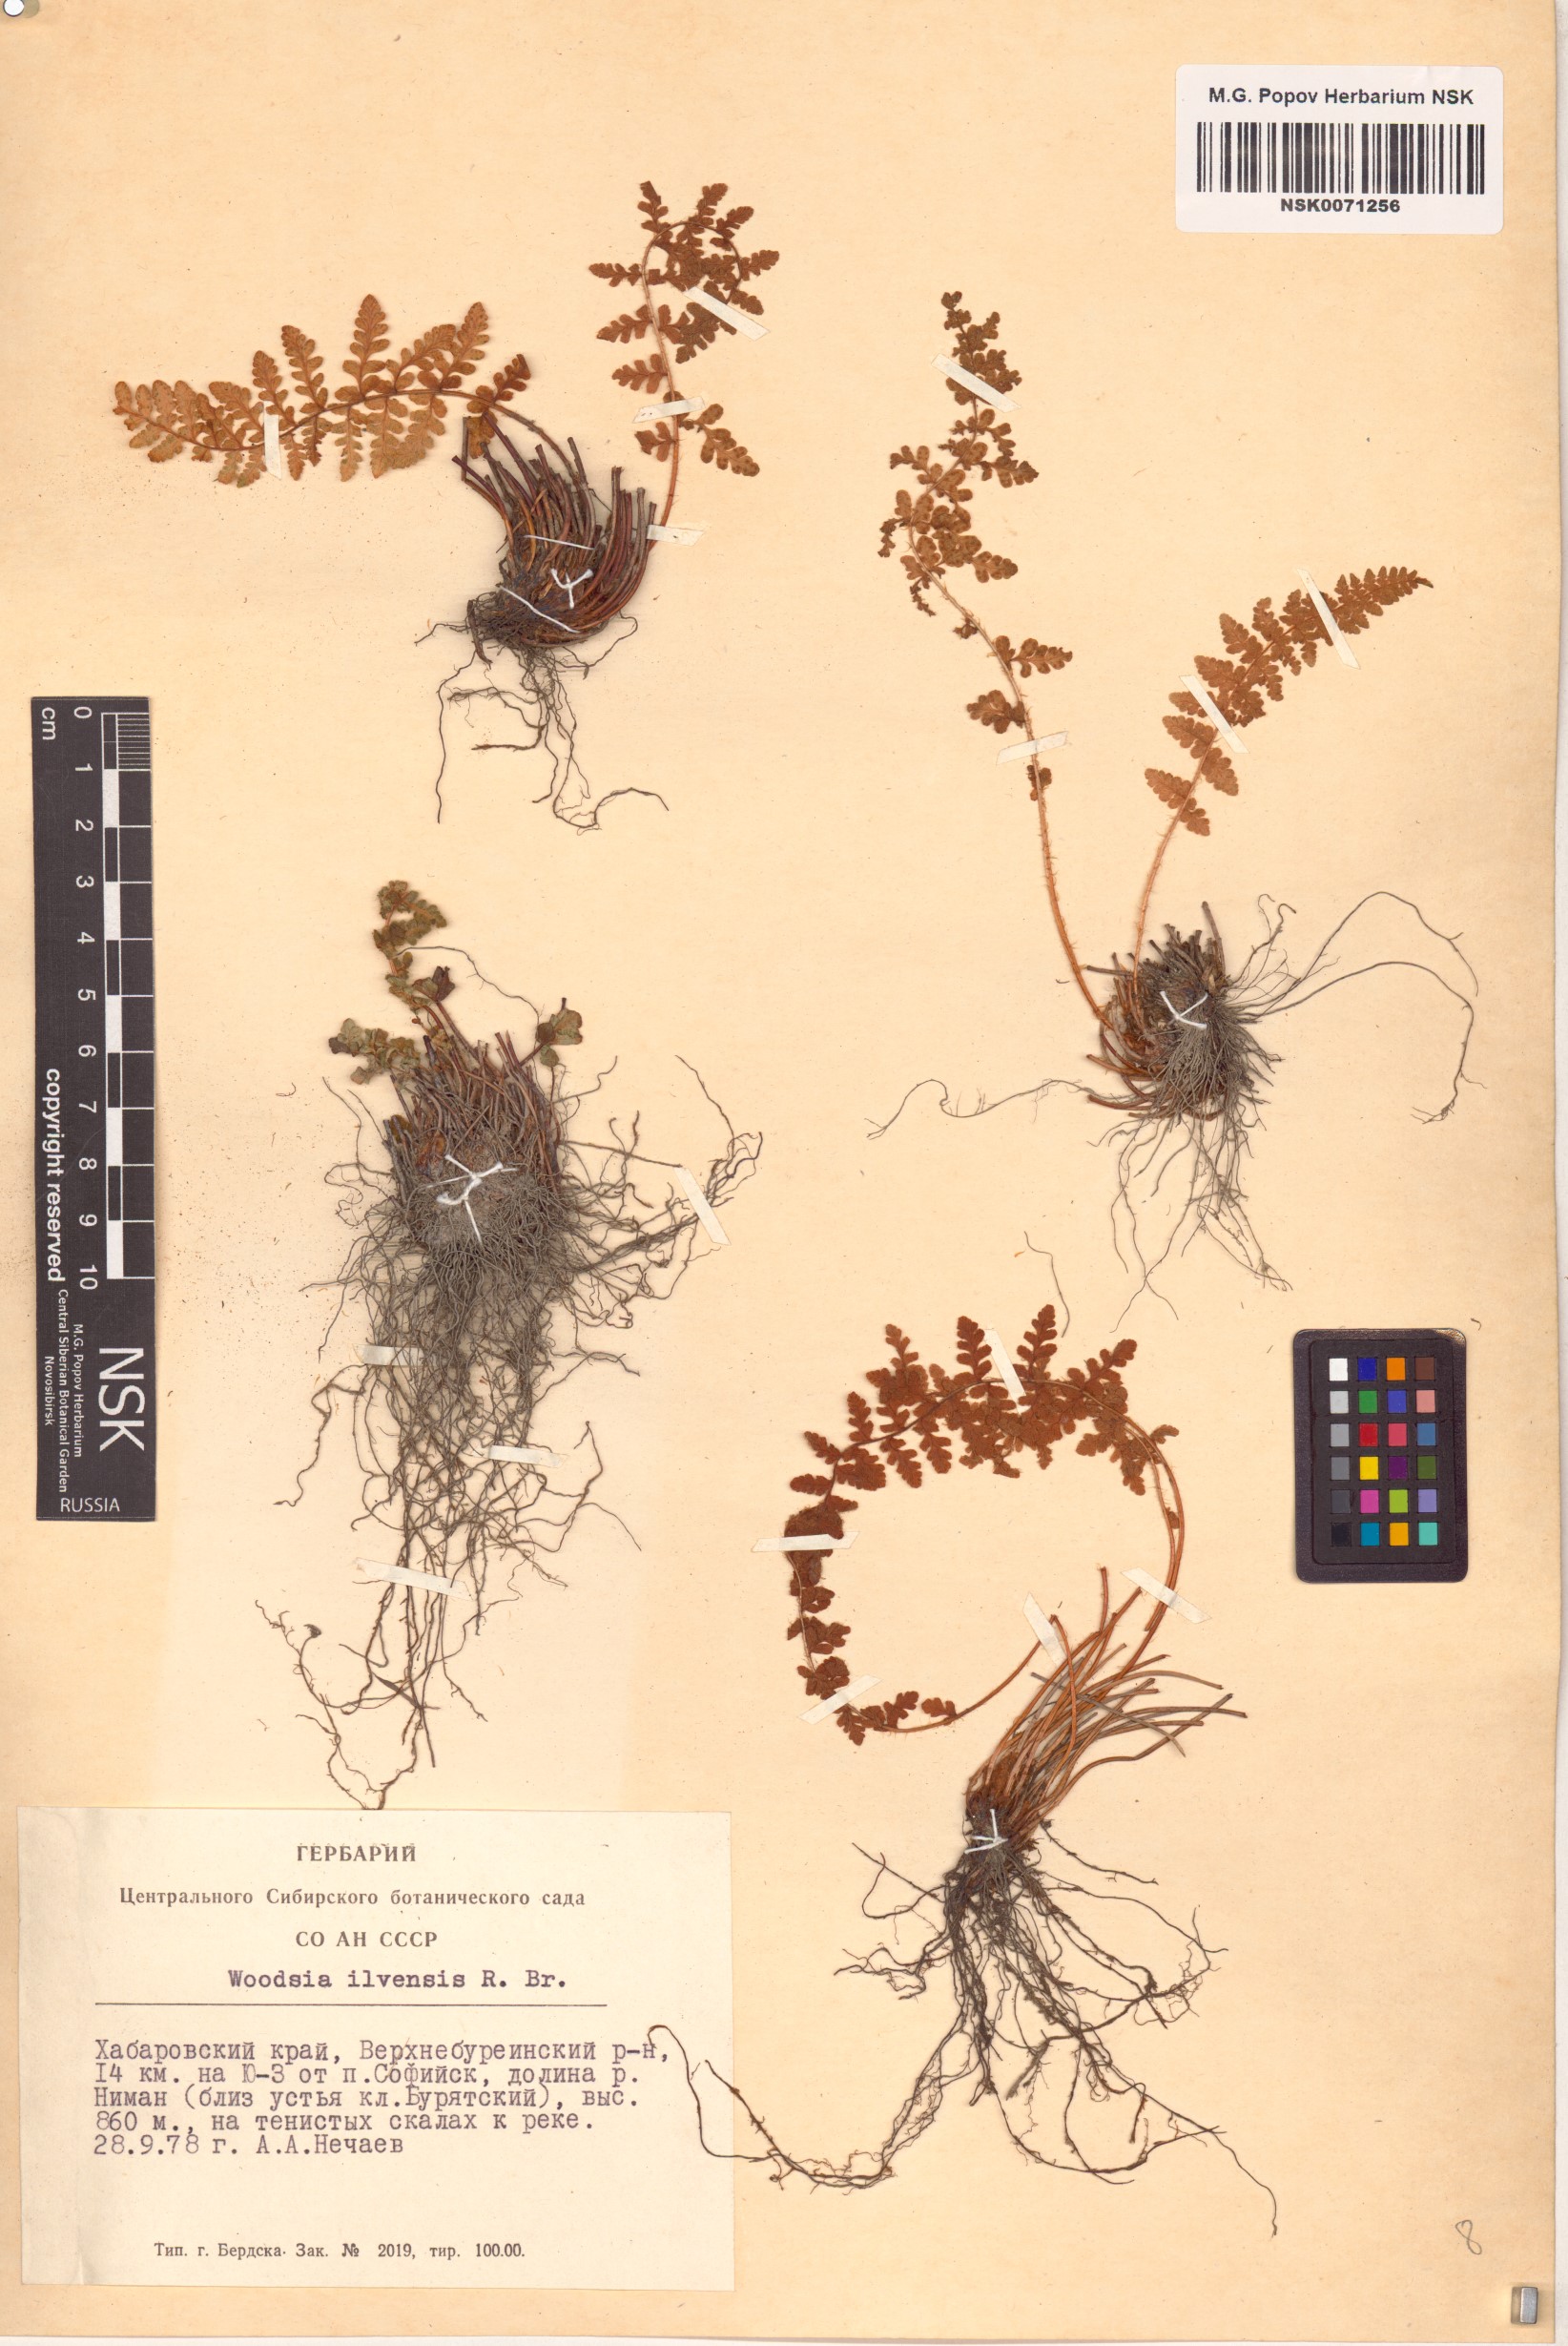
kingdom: Plantae
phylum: Tracheophyta
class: Polypodiopsida
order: Polypodiales
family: Woodsiaceae
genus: Woodsia
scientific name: Woodsia ilvensis
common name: Fragrant woodsia
